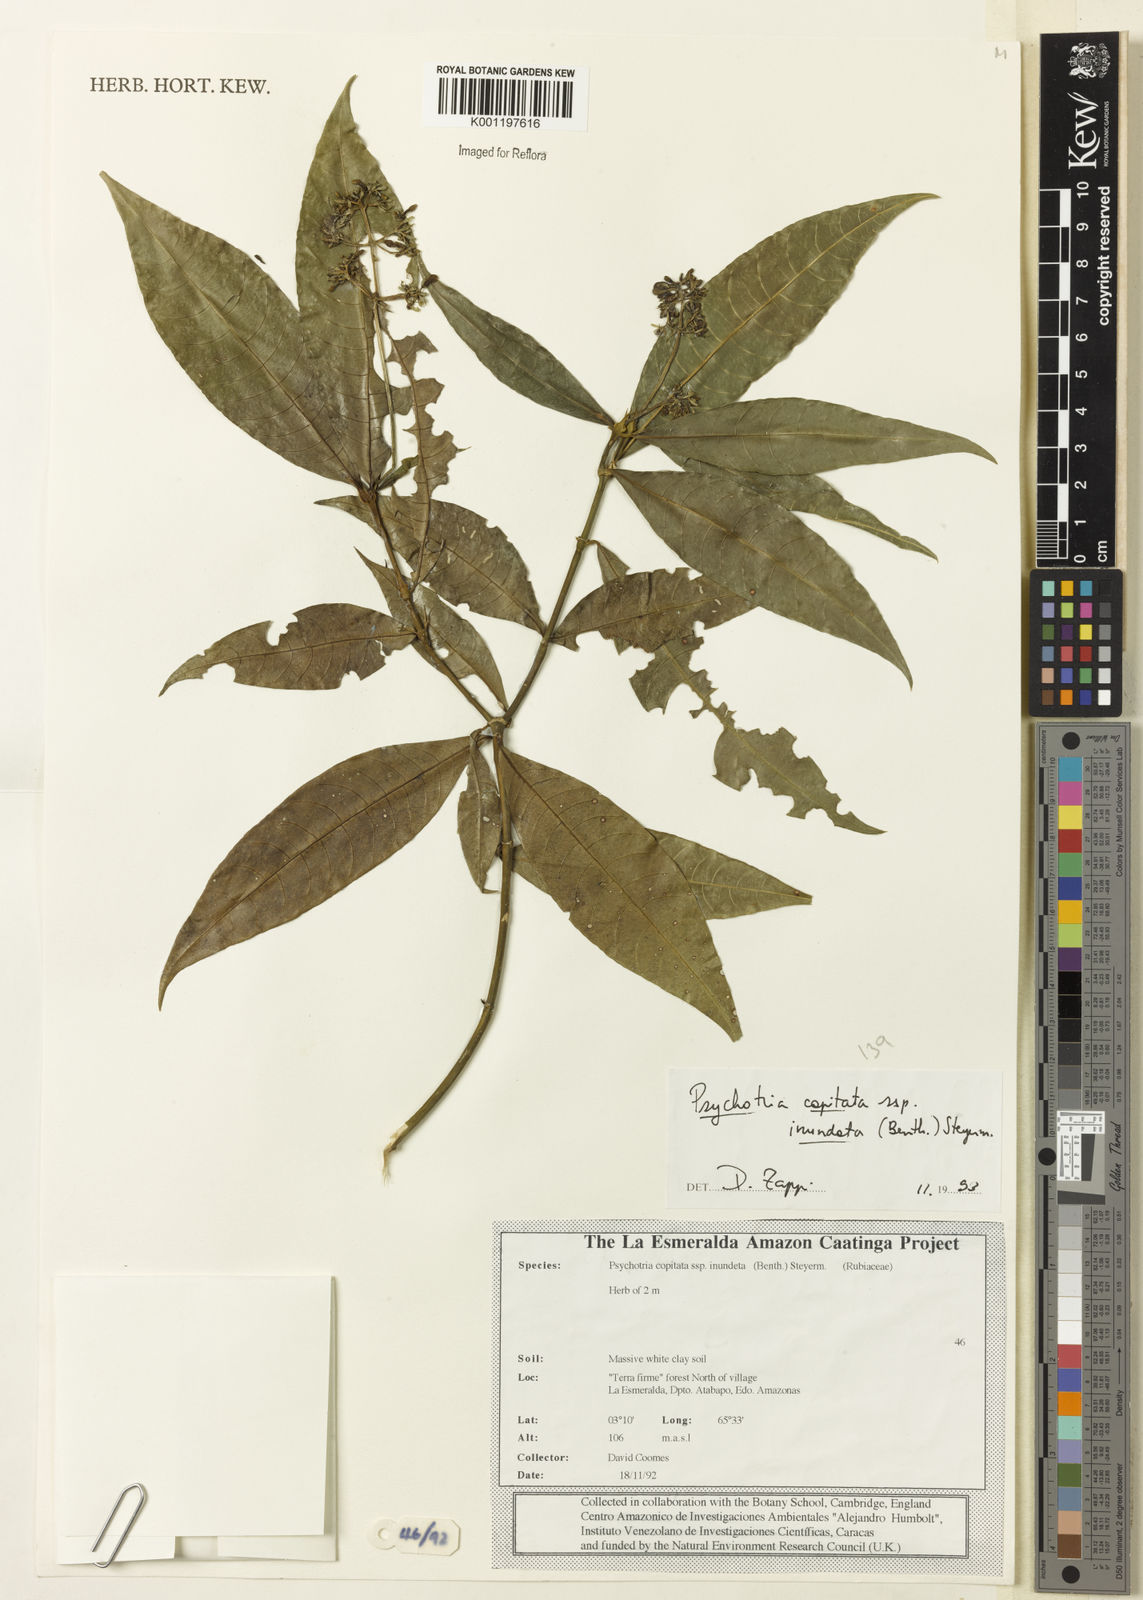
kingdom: Plantae
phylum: Tracheophyta
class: Magnoliopsida
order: Gentianales
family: Rubiaceae
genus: Palicourea
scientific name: Palicourea violacea
